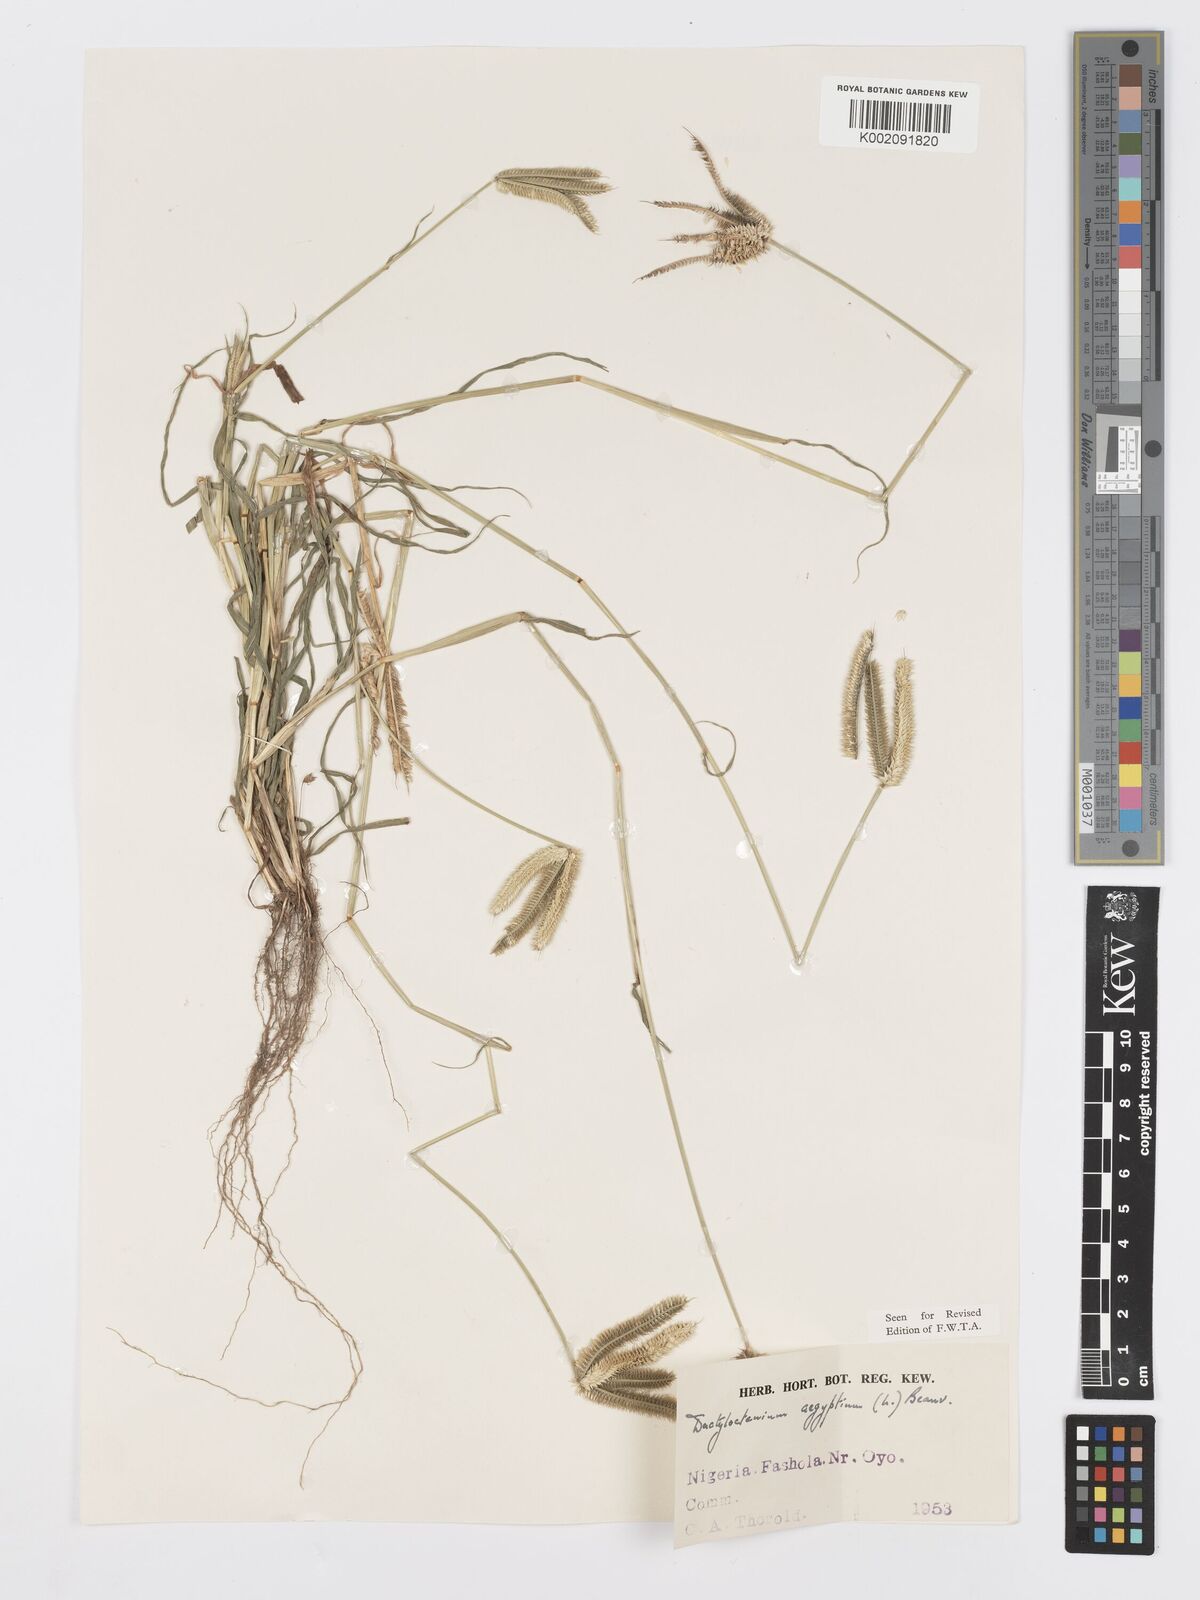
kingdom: Plantae
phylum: Tracheophyta
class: Liliopsida
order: Poales
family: Poaceae
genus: Dactyloctenium
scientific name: Dactyloctenium aegyptium
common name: Egyptian grass
